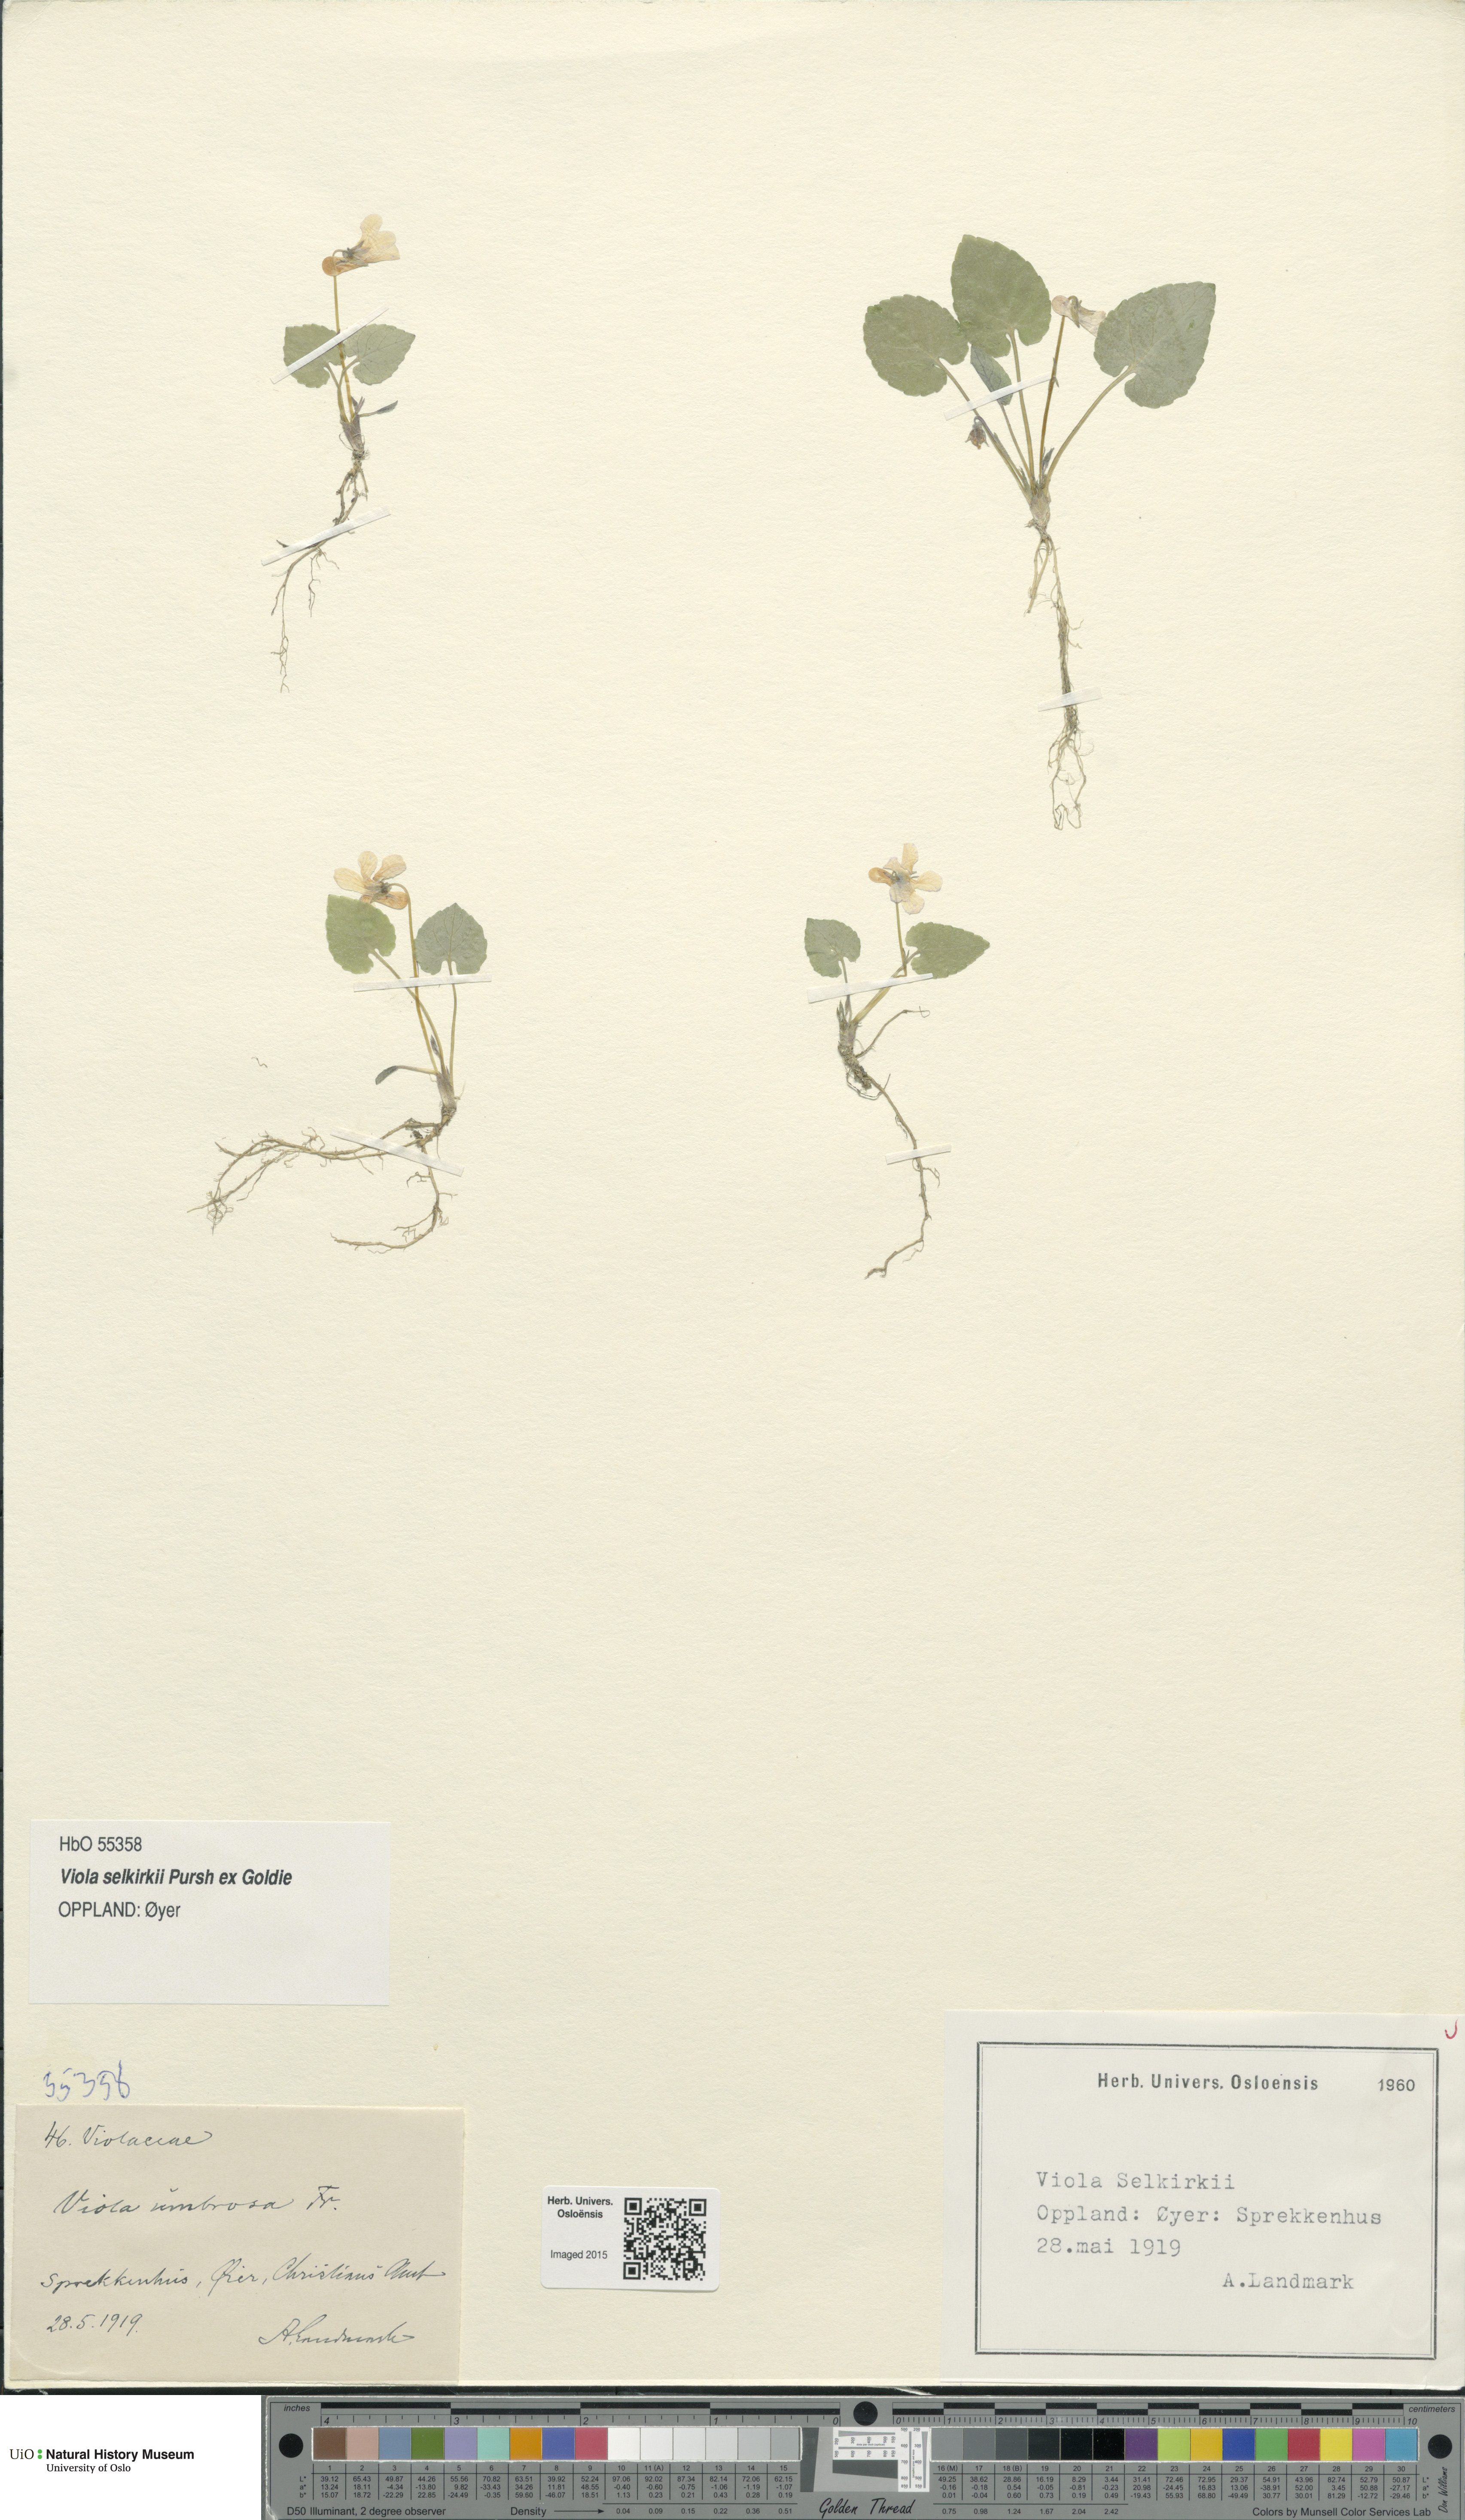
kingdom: Plantae
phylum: Tracheophyta
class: Magnoliopsida
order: Malpighiales
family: Violaceae
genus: Viola
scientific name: Viola selkirkii
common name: Selkirk's violet
